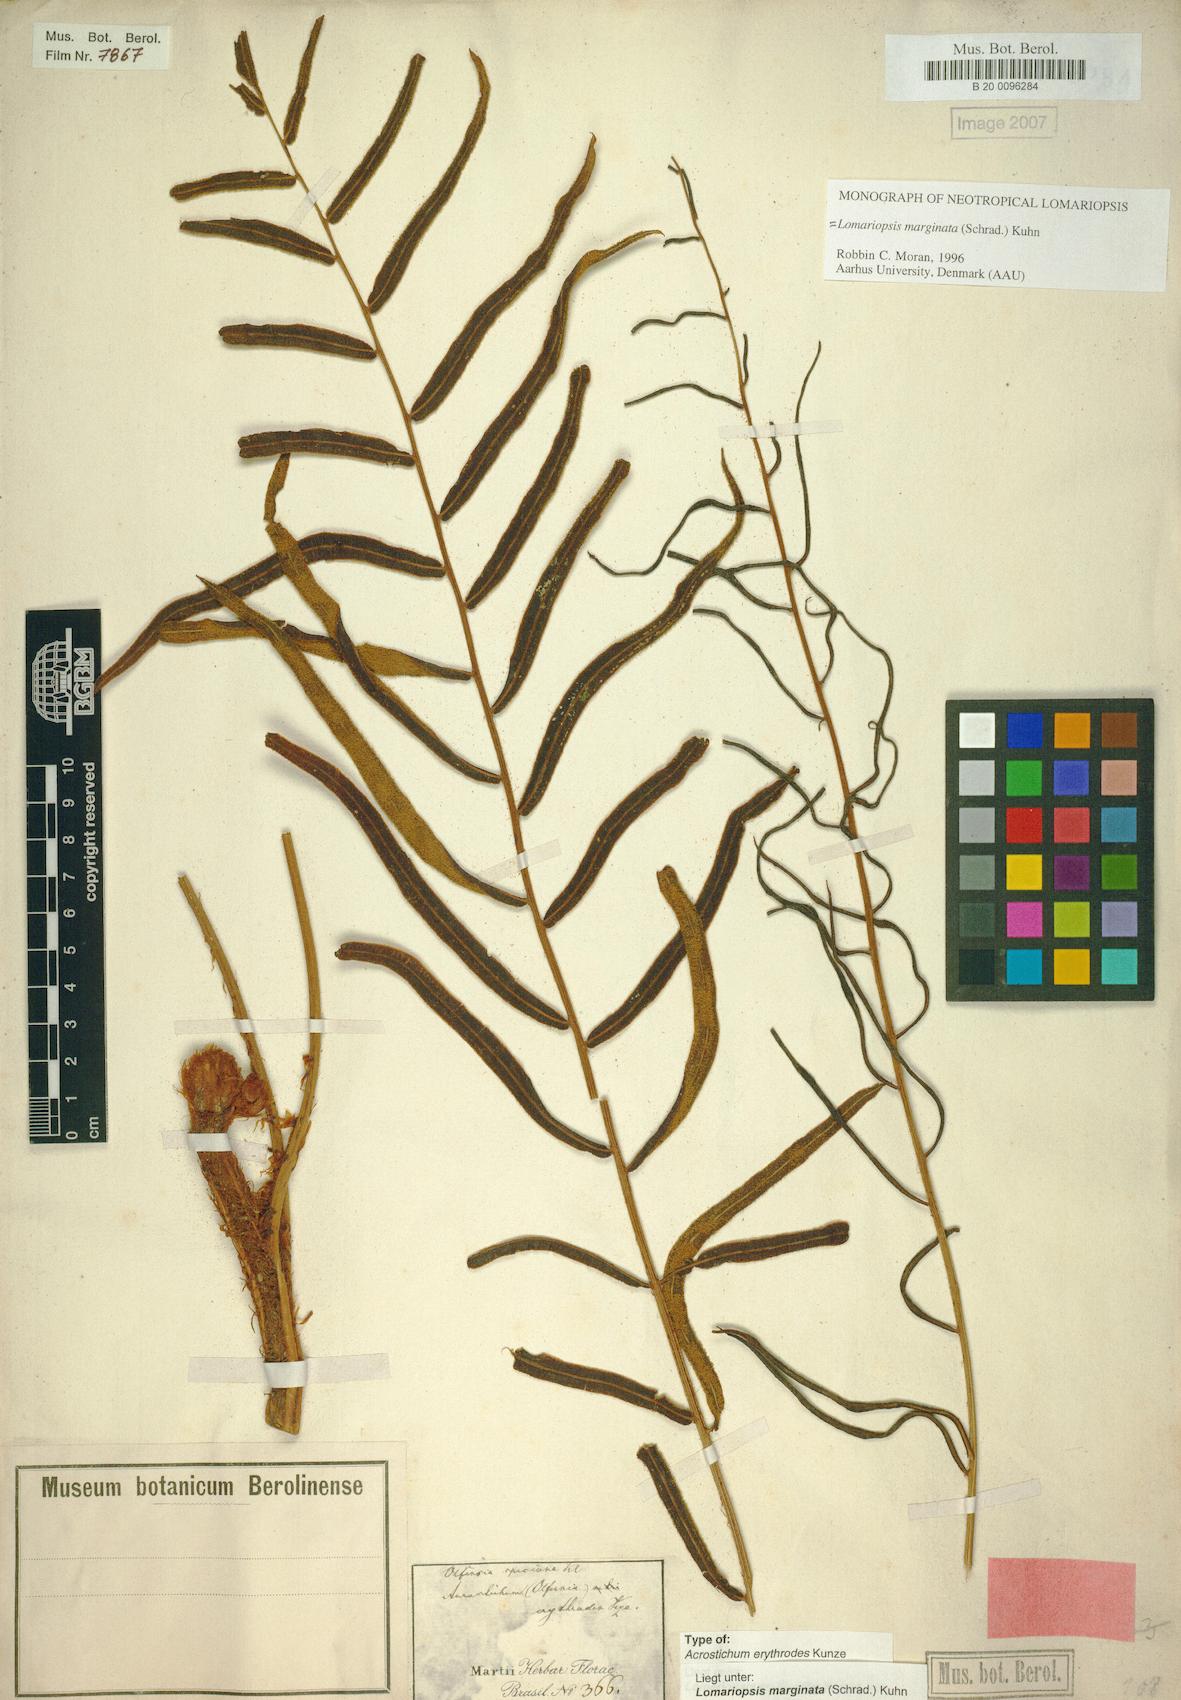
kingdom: Plantae
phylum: Tracheophyta
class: Polypodiopsida
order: Polypodiales
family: Lomariopsidaceae
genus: Lomariopsis
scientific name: Lomariopsis marginata
